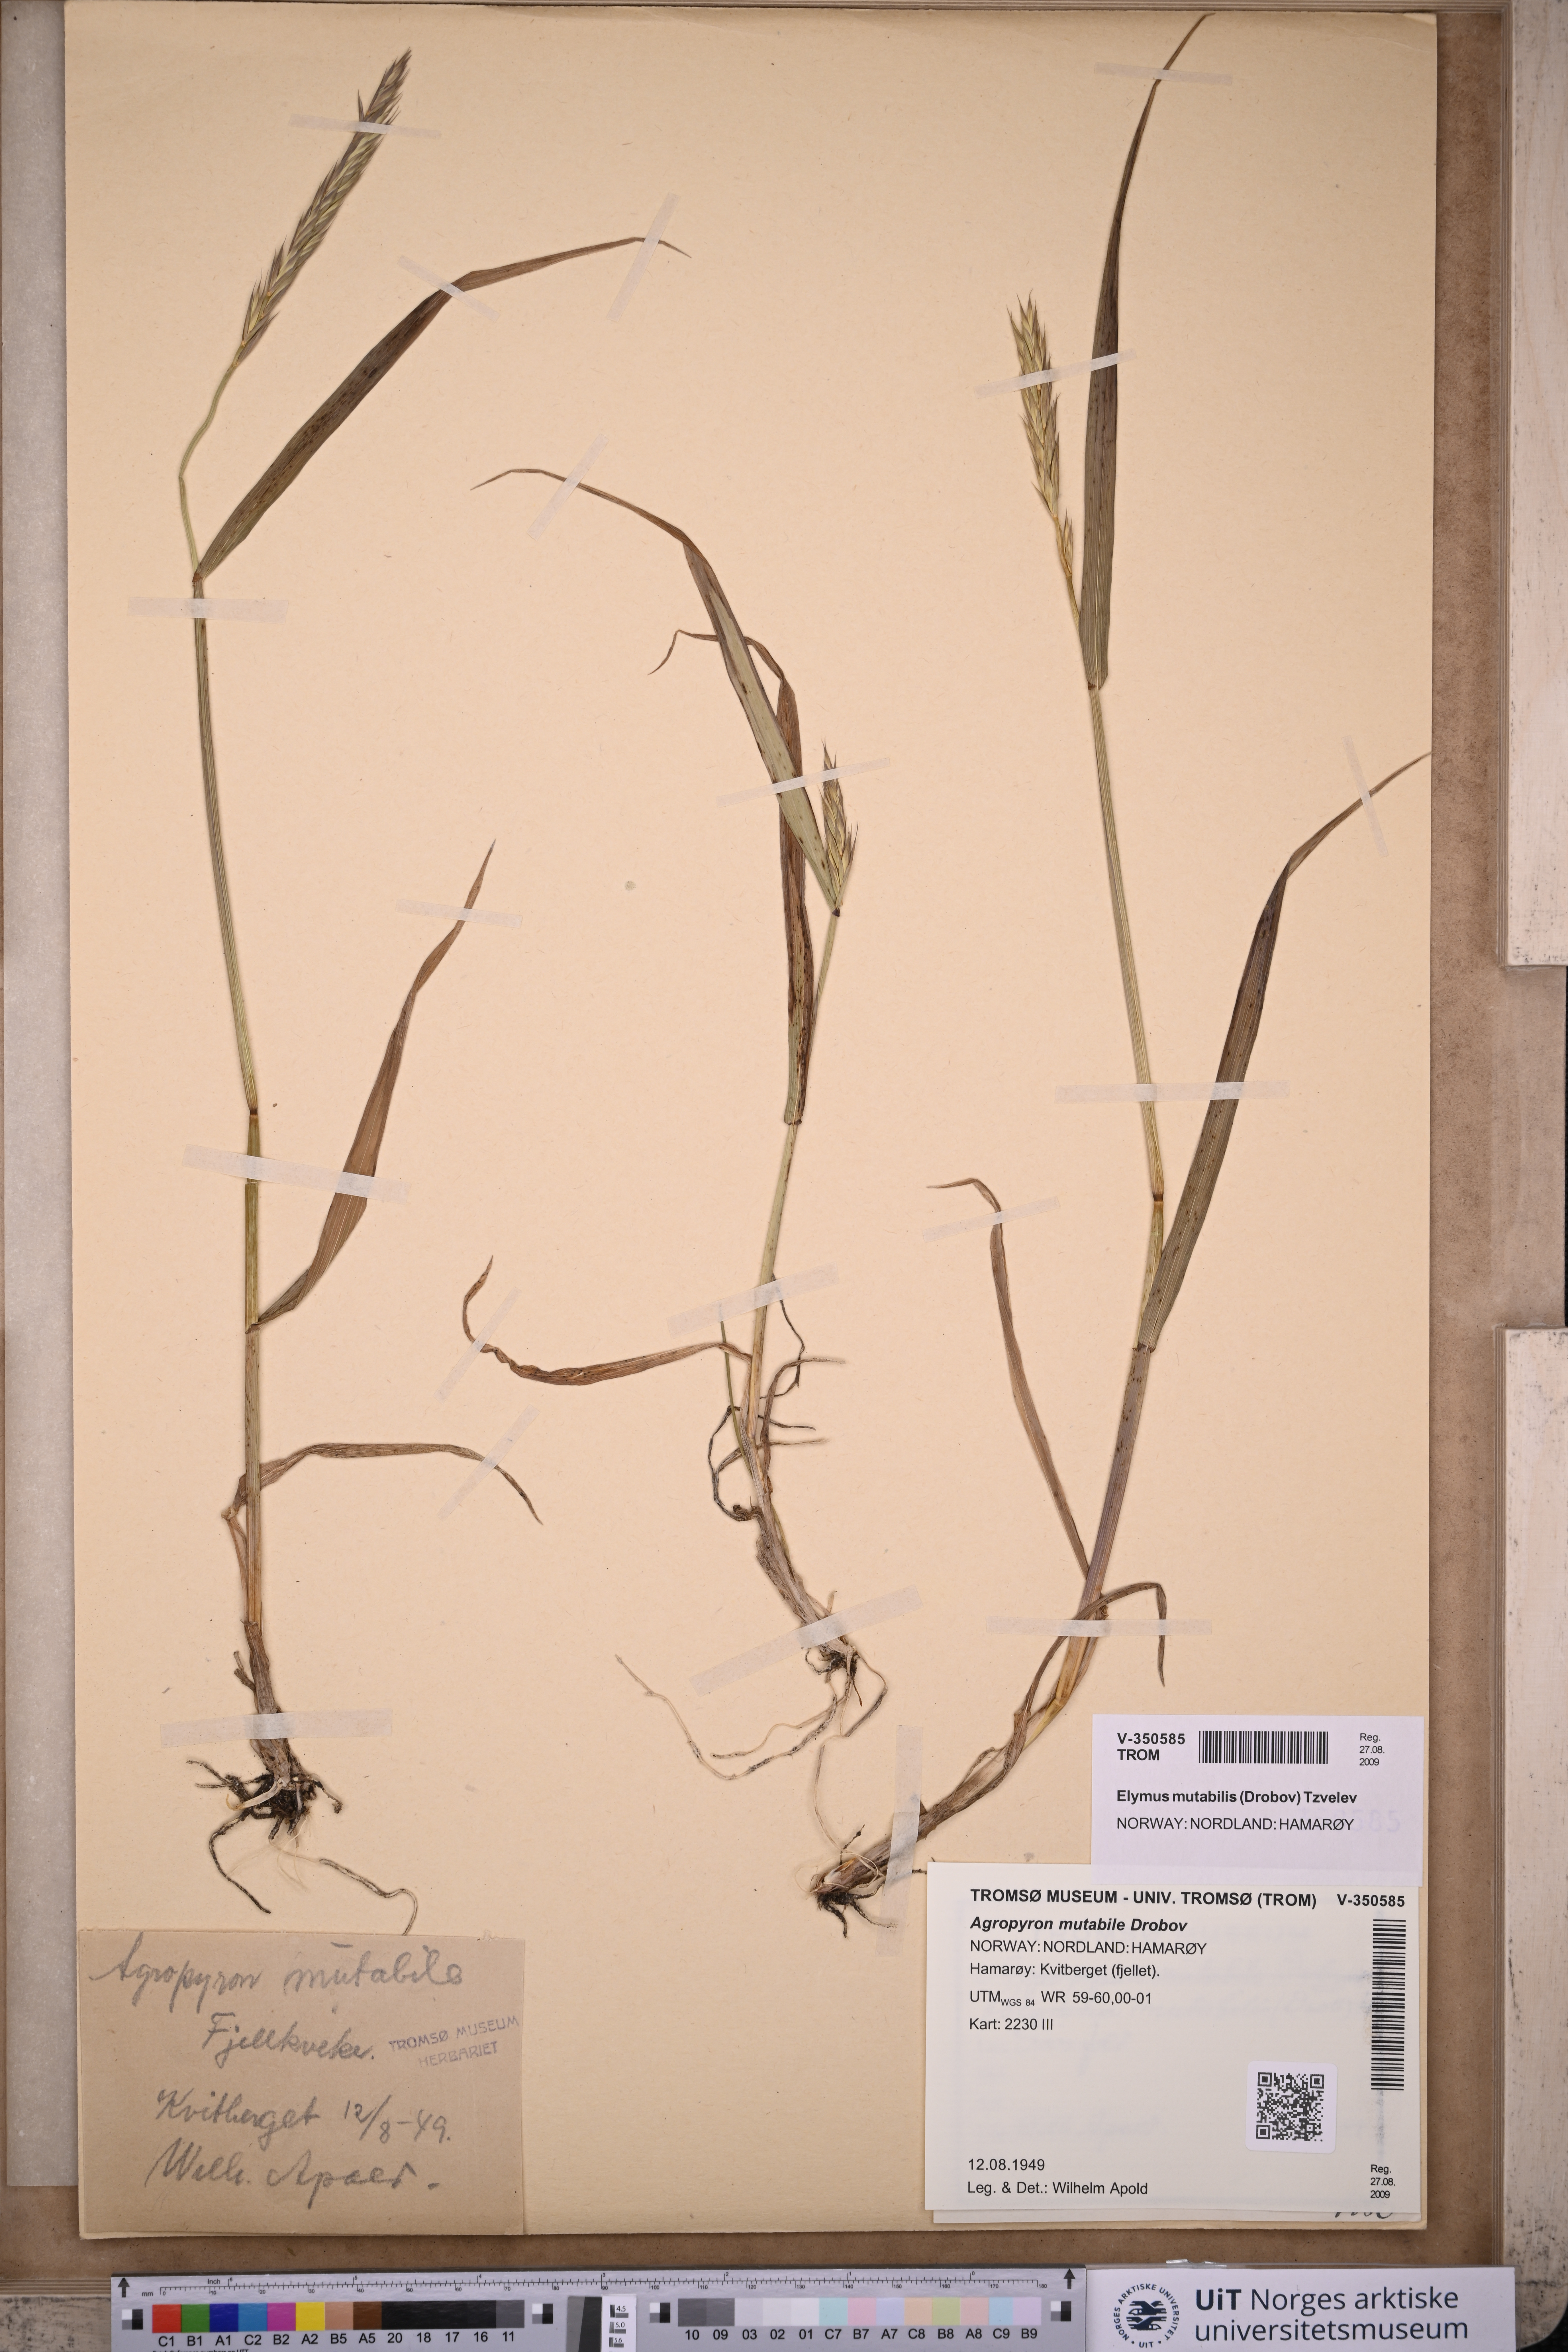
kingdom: Plantae
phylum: Tracheophyta
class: Liliopsida
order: Poales
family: Poaceae
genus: Elymus
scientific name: Elymus mutabilis
